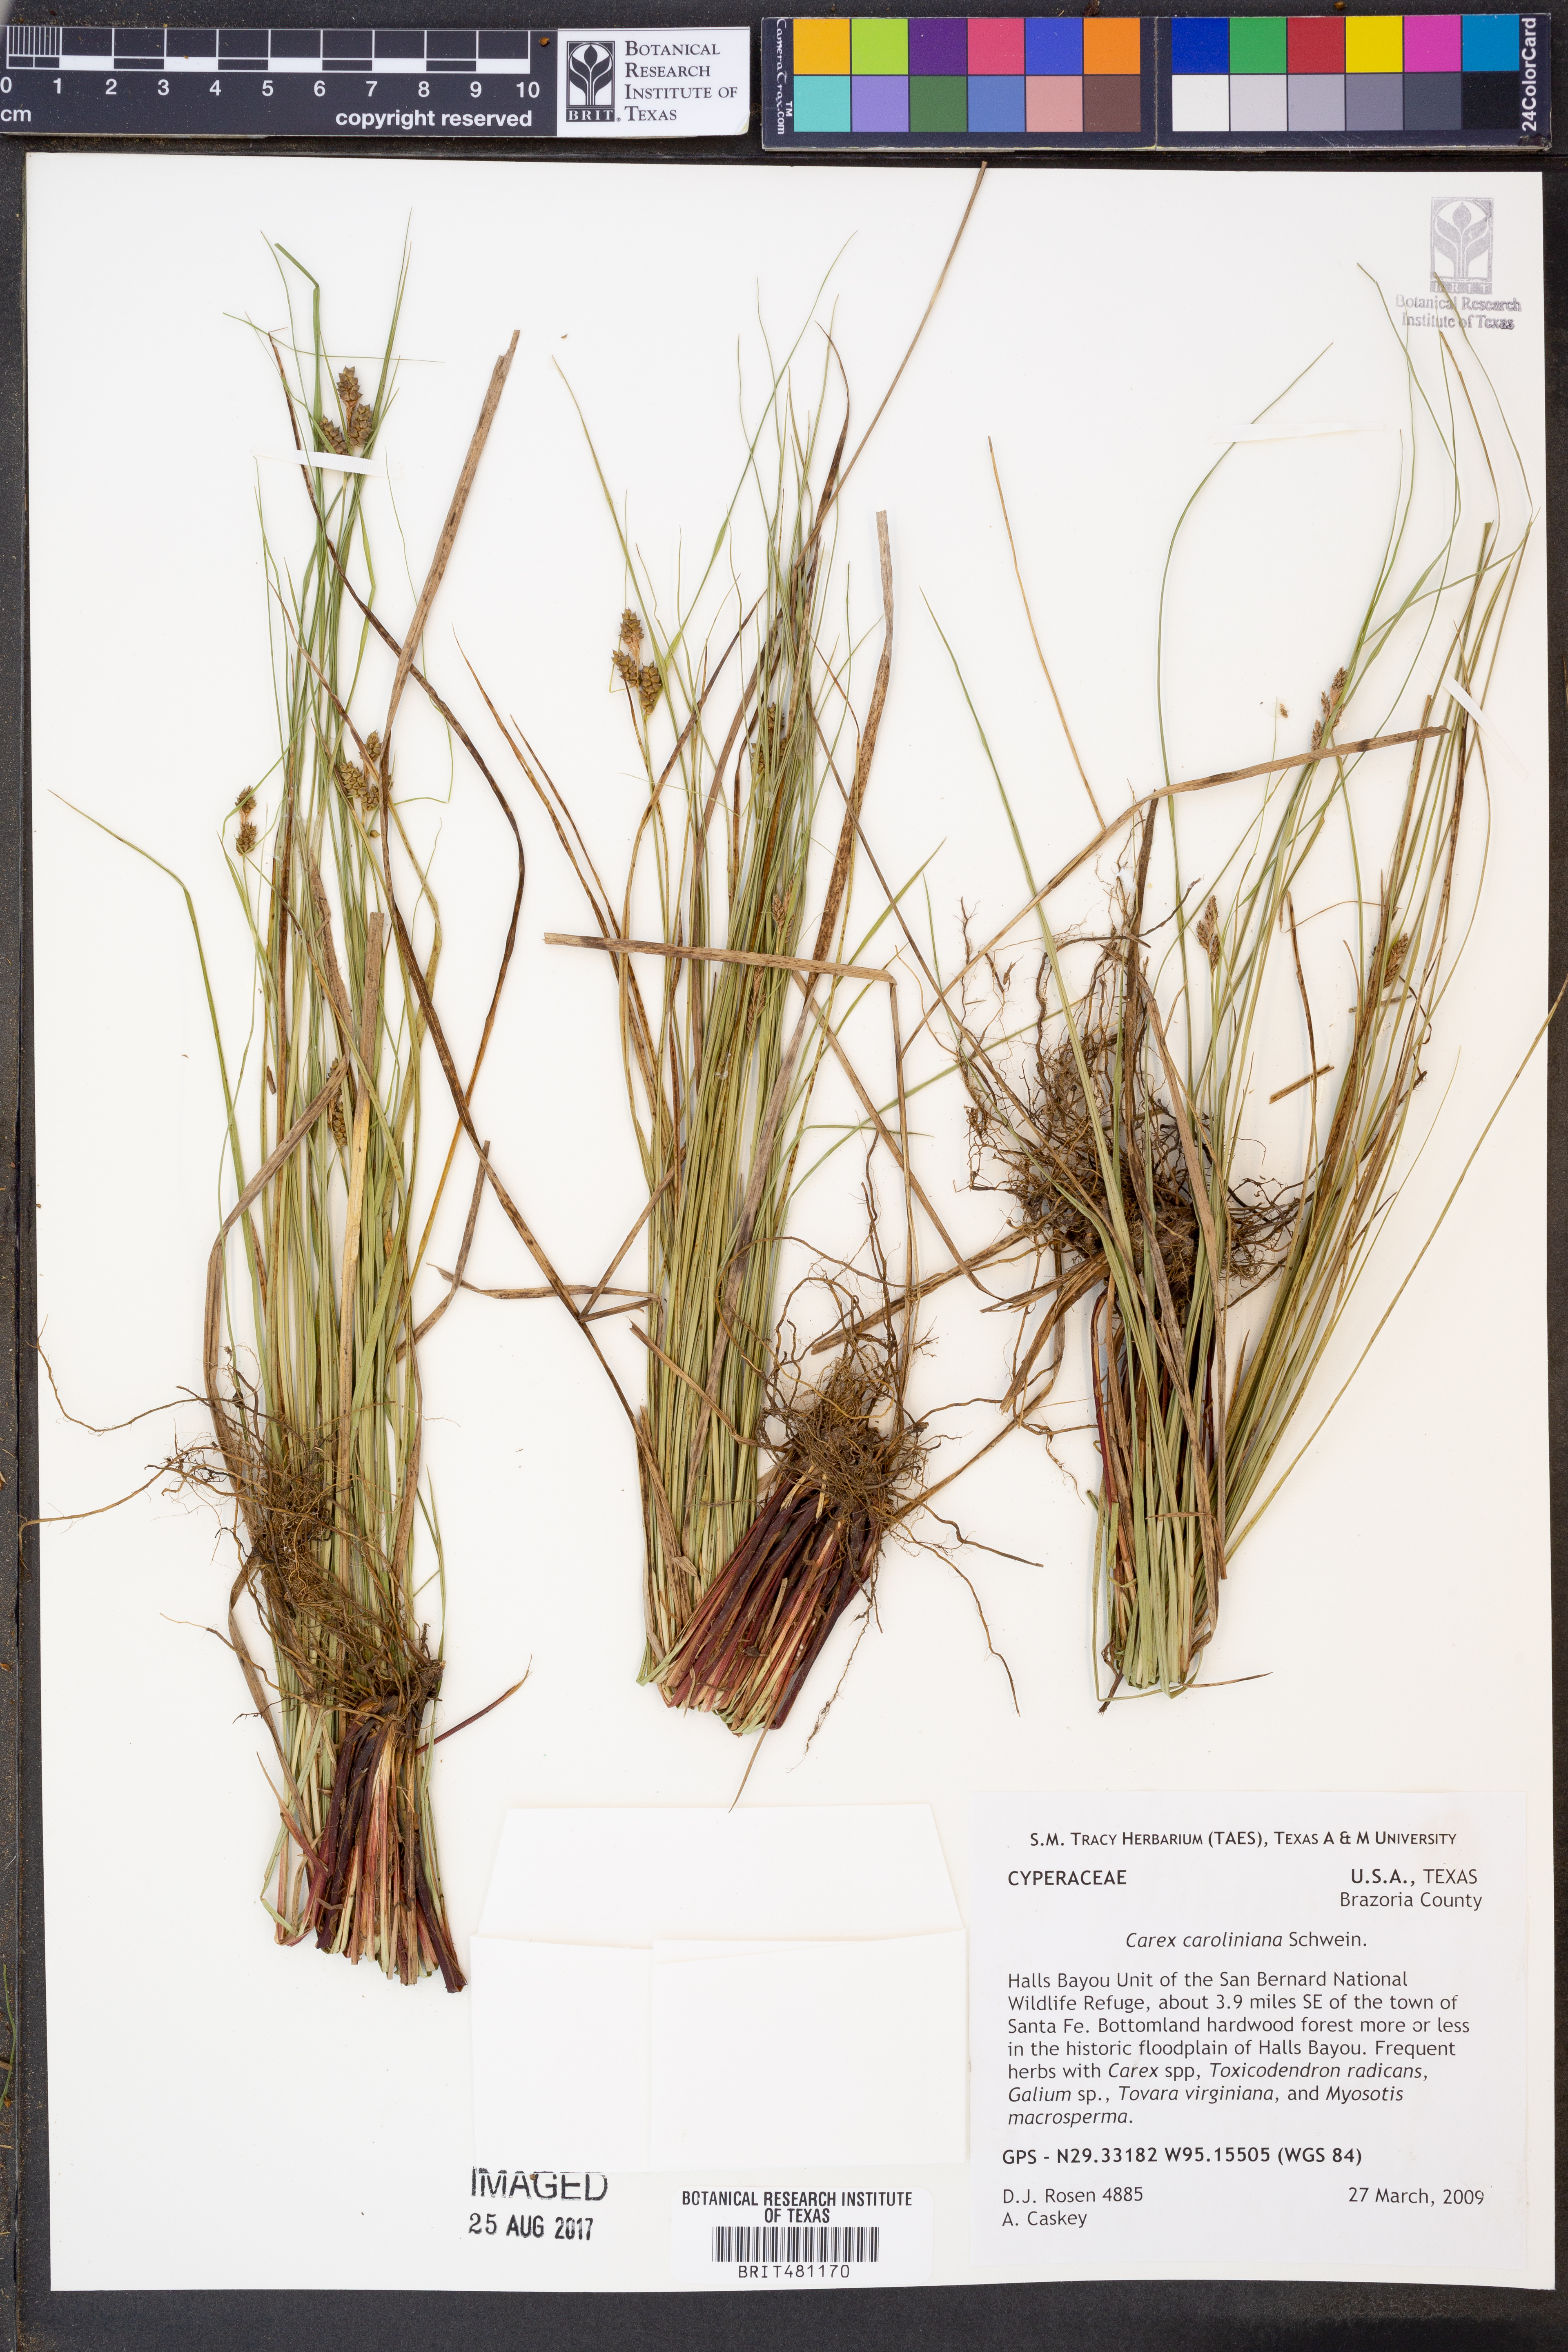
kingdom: Plantae
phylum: Tracheophyta
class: Liliopsida
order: Poales
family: Cyperaceae
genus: Carex
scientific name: Carex caroliniana
